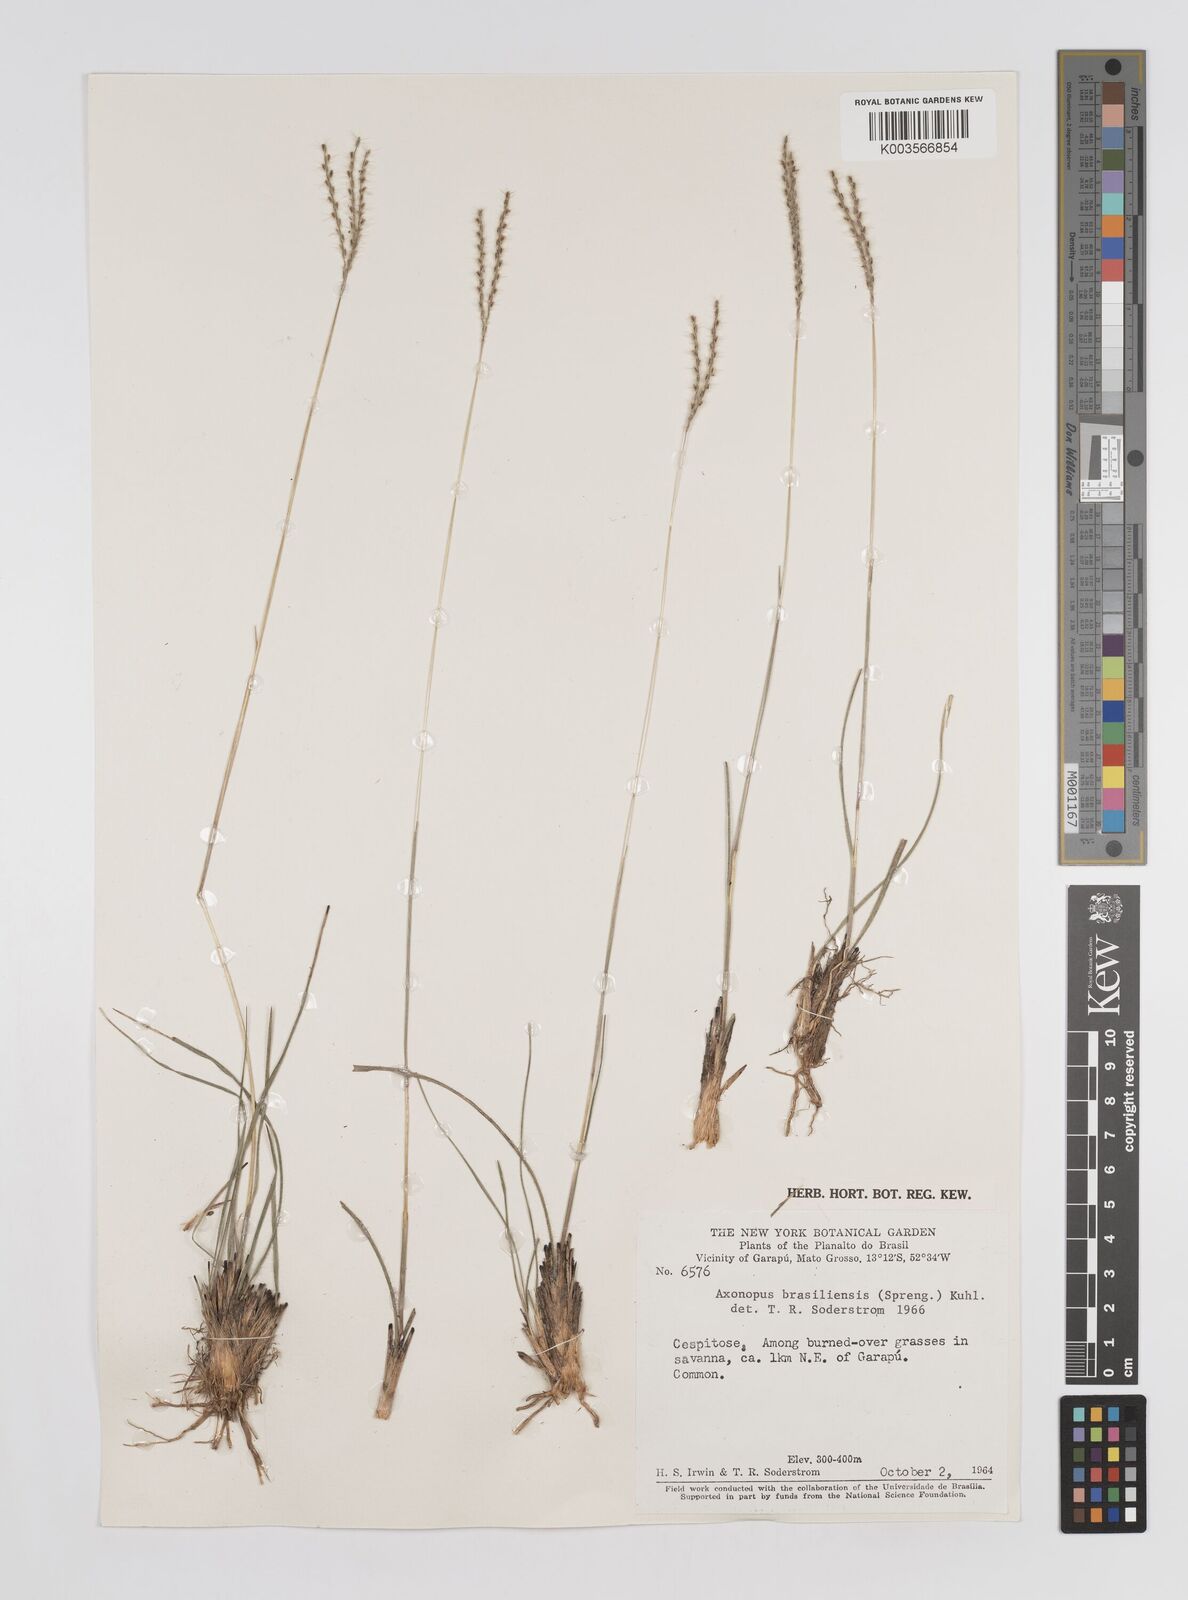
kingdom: Plantae
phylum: Tracheophyta
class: Liliopsida
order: Poales
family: Poaceae
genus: Axonopus
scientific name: Axonopus brasiliensis
